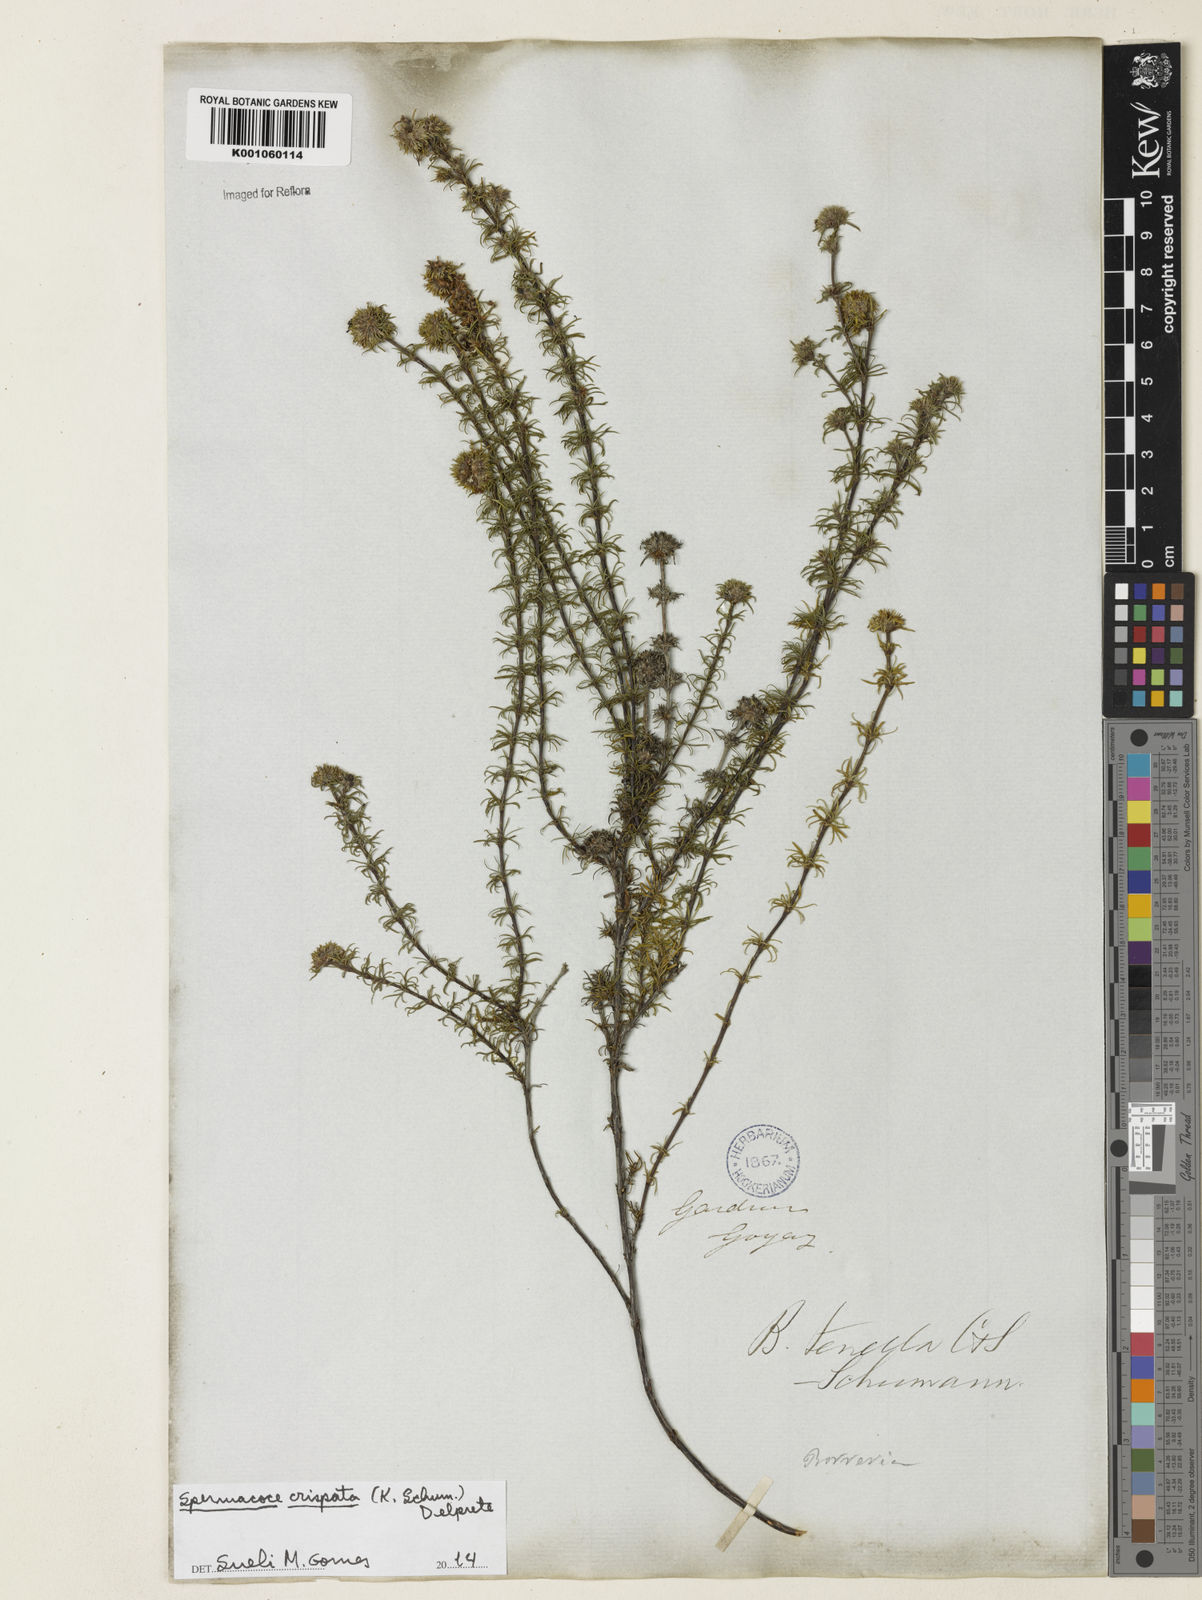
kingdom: Plantae
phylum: Tracheophyta
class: Magnoliopsida
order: Gentianales
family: Rubiaceae
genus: Spermacoce
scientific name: Spermacoce crispata
